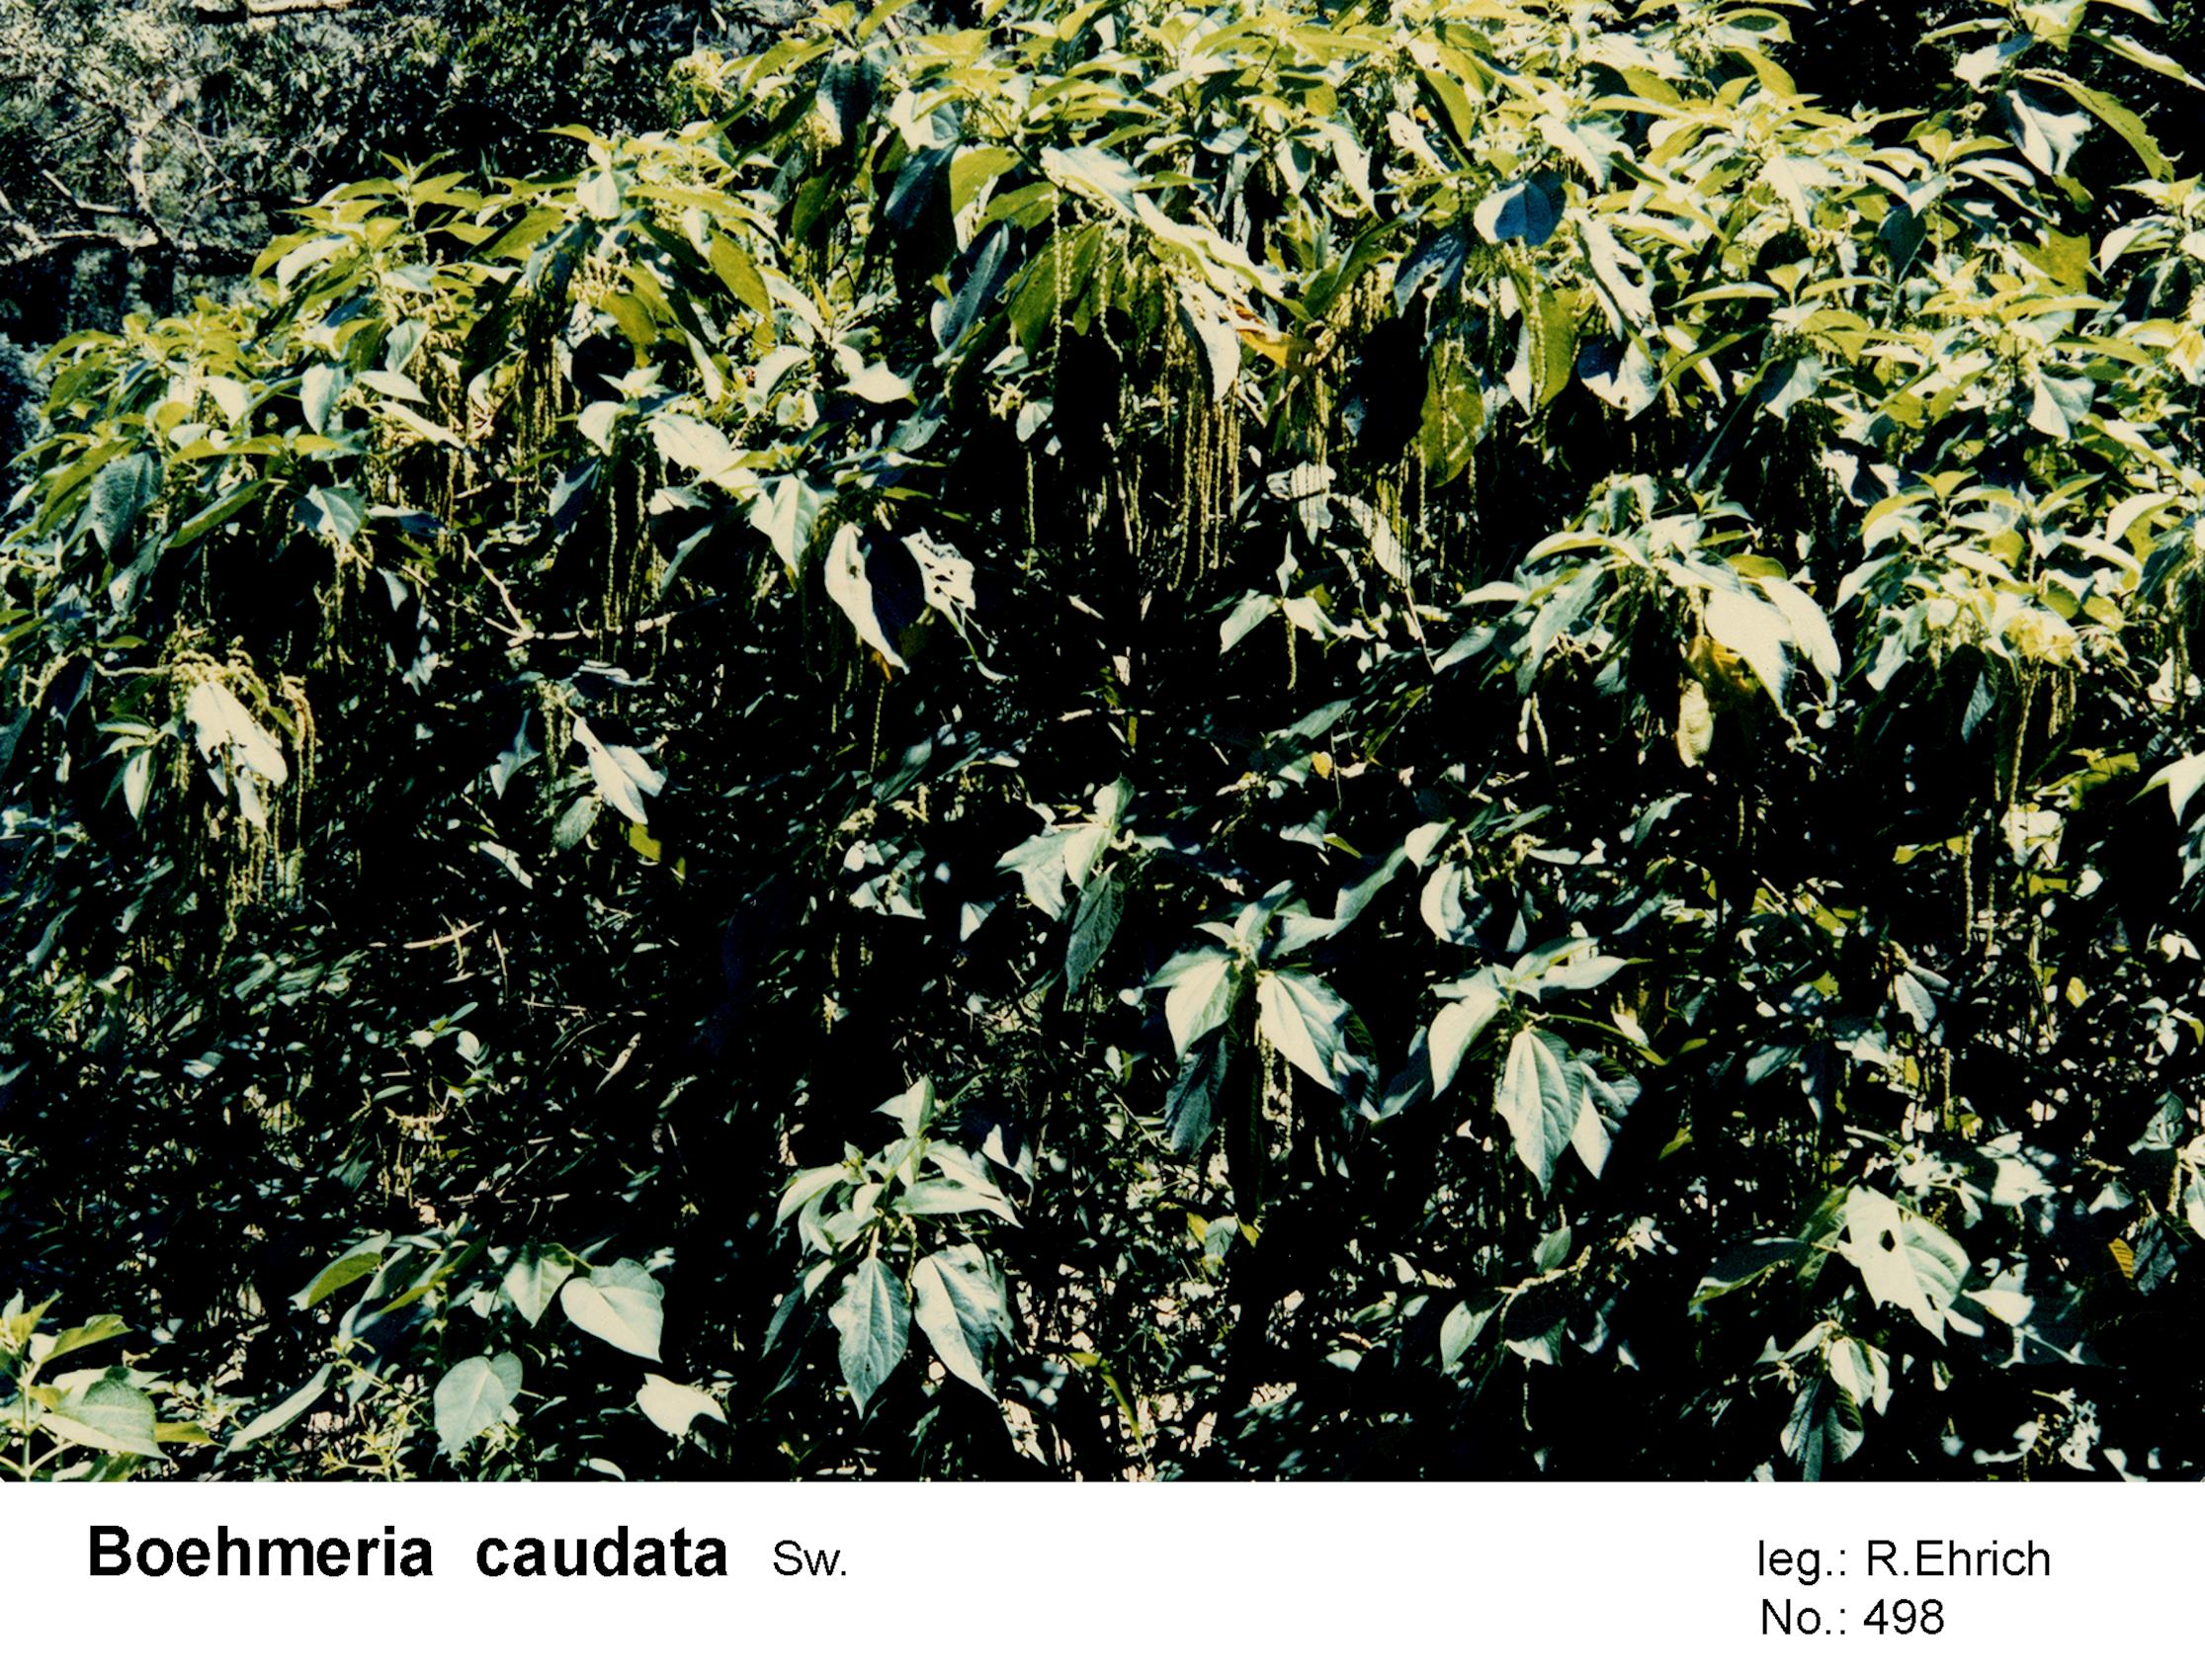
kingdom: Plantae
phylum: Tracheophyta
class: Magnoliopsida
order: Rosales
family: Urticaceae
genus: Boehmeria
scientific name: Boehmeria caudata
